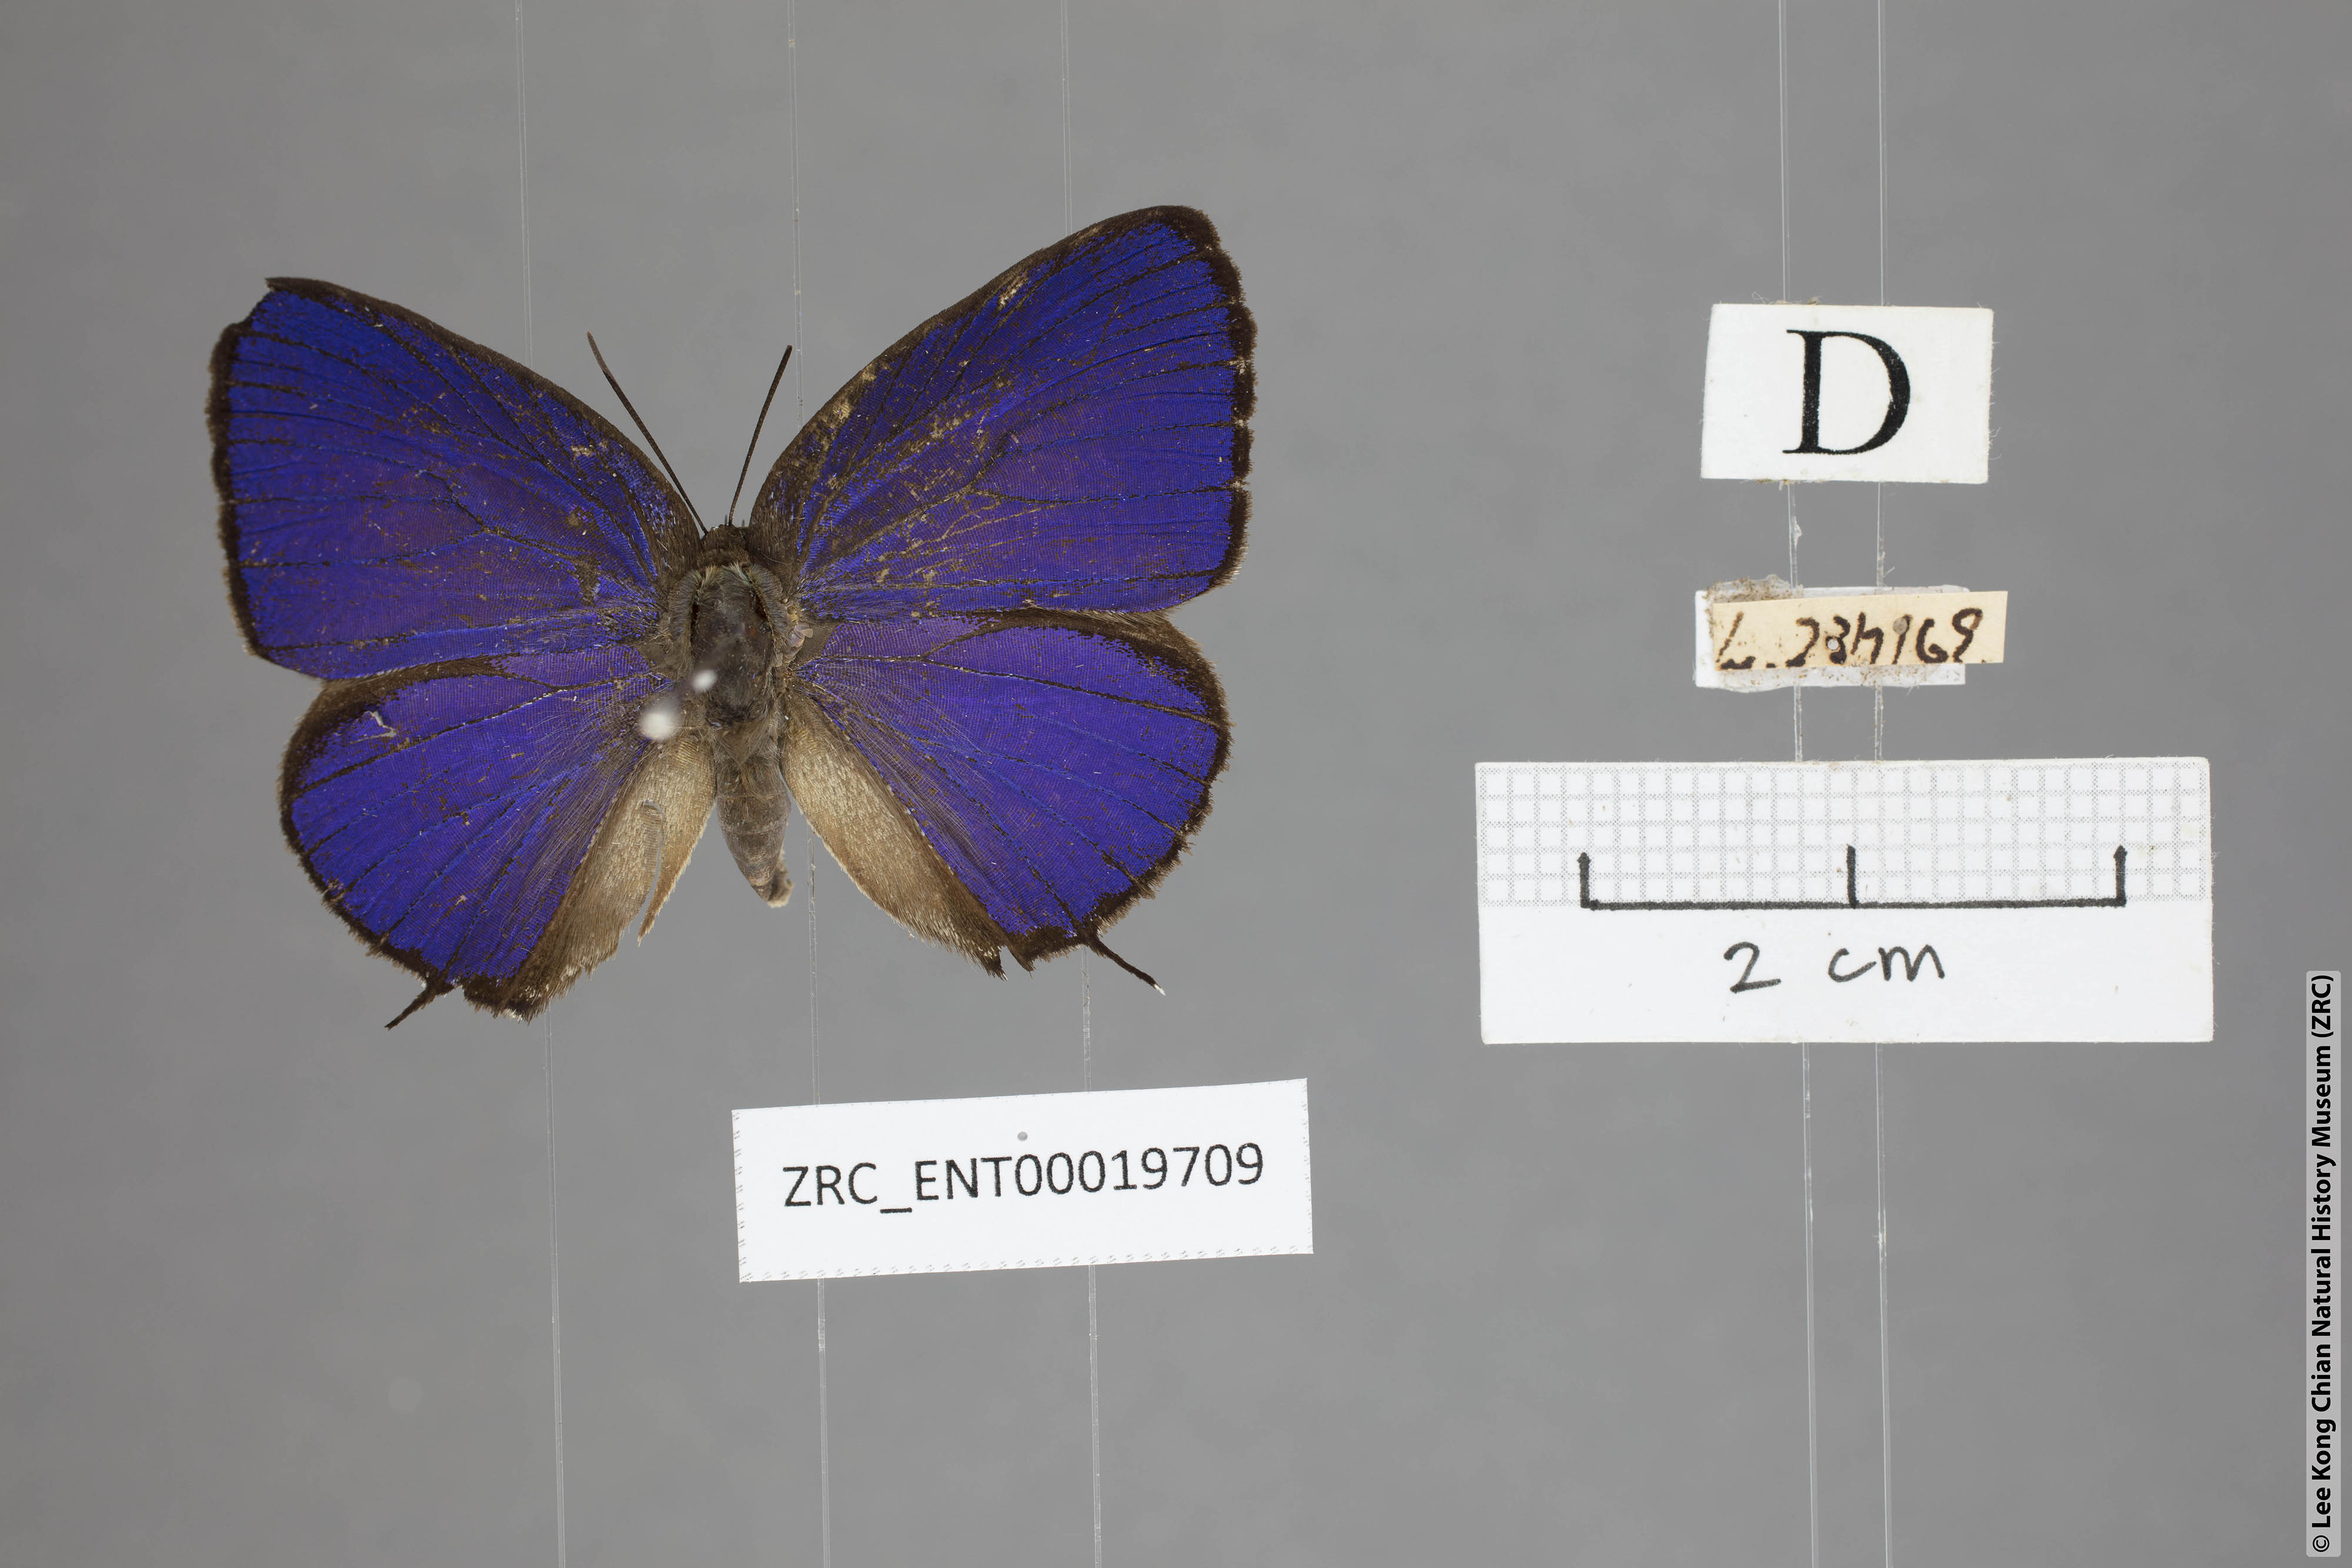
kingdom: Animalia
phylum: Arthropoda
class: Insecta
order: Lepidoptera
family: Lycaenidae
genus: Arhopala
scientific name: Arhopala myrzala
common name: Malayan oakblue
